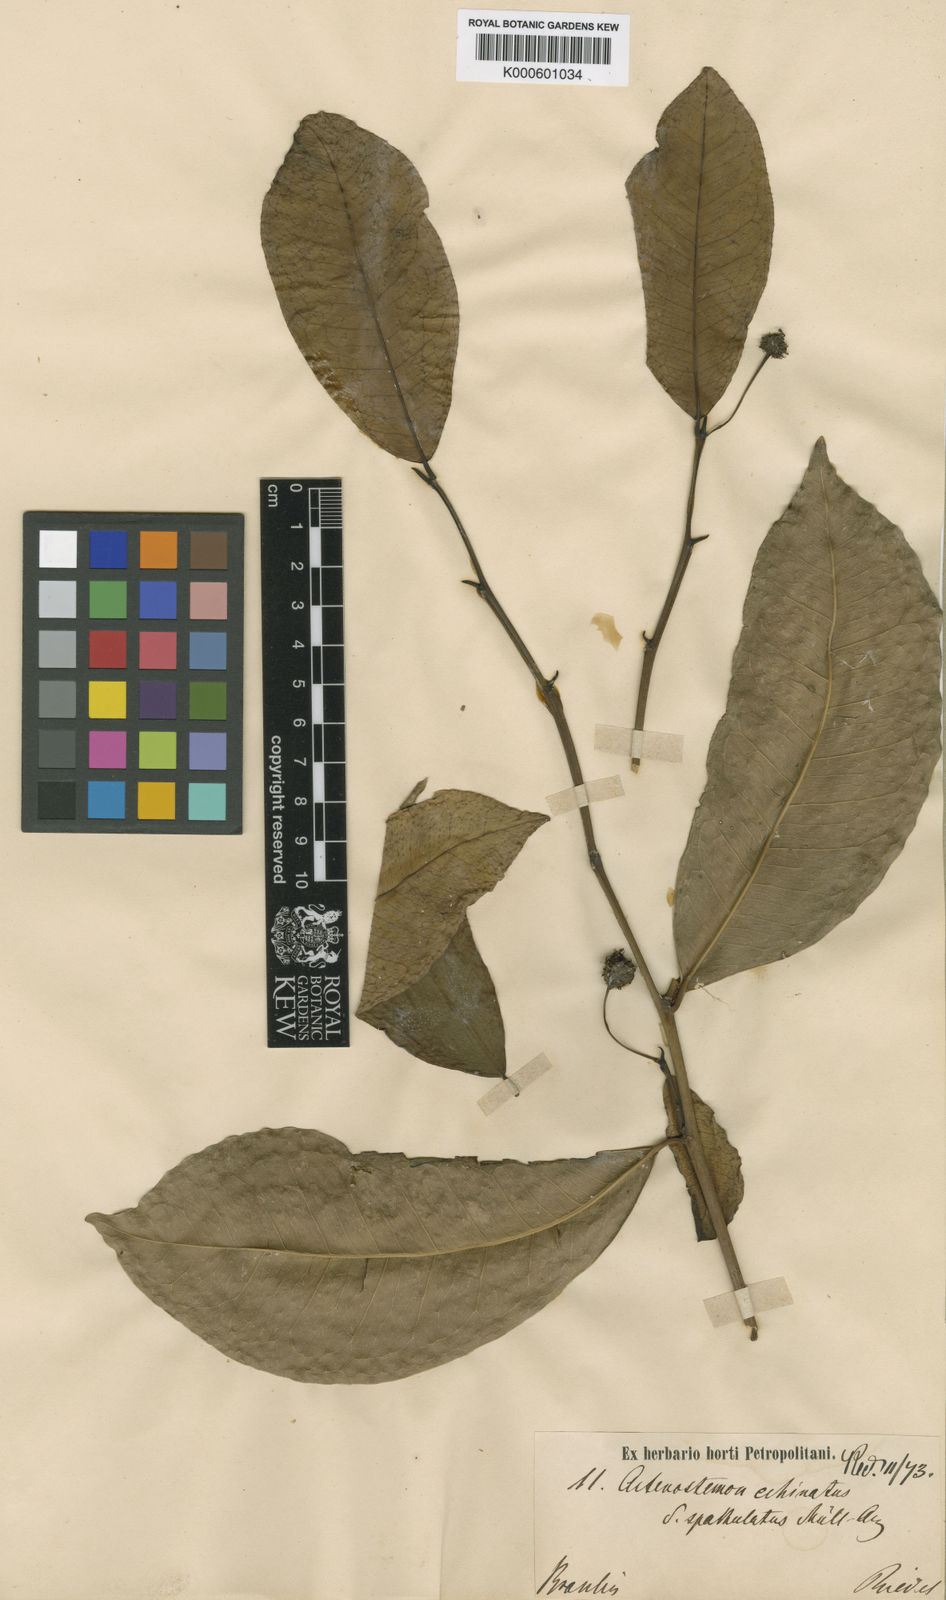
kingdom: Plantae
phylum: Tracheophyta
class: Magnoliopsida
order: Malpighiales
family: Euphorbiaceae
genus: Actinostemon
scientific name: Actinostemon
